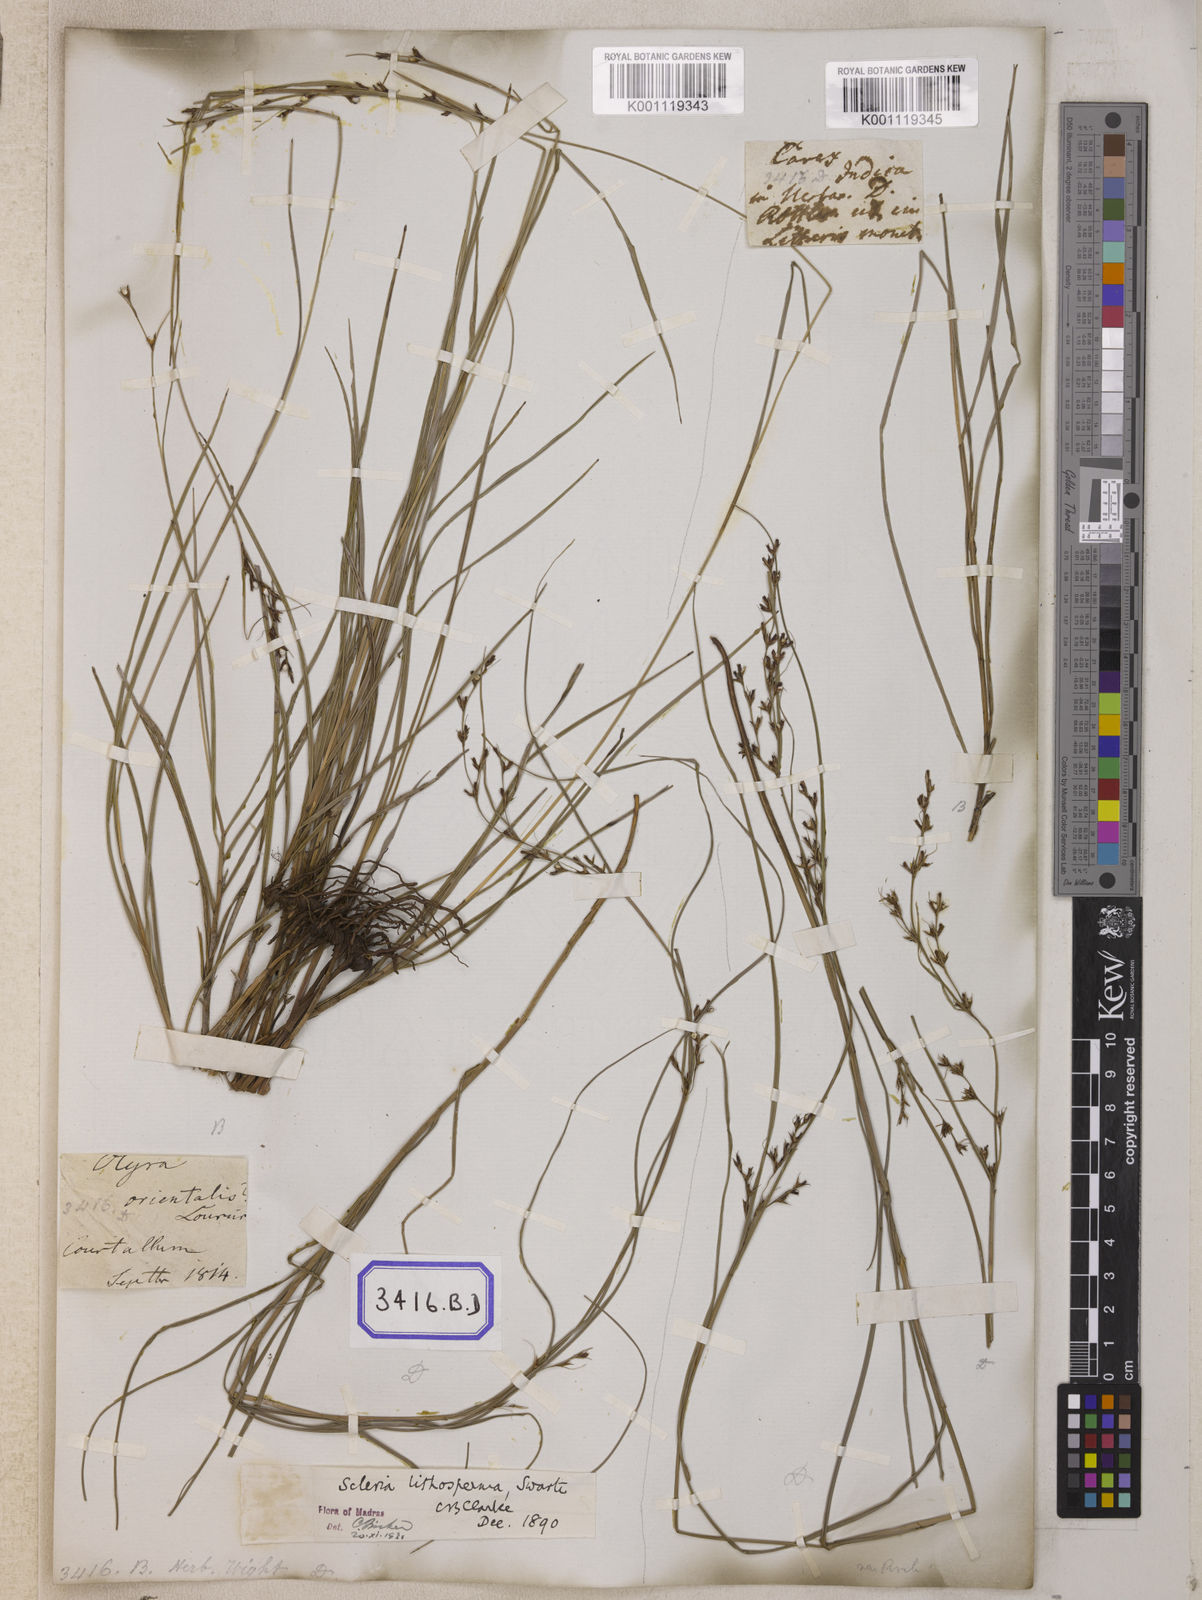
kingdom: Plantae
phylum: Tracheophyta
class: Liliopsida
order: Poales
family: Cyperaceae
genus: Scleria
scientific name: Scleria
